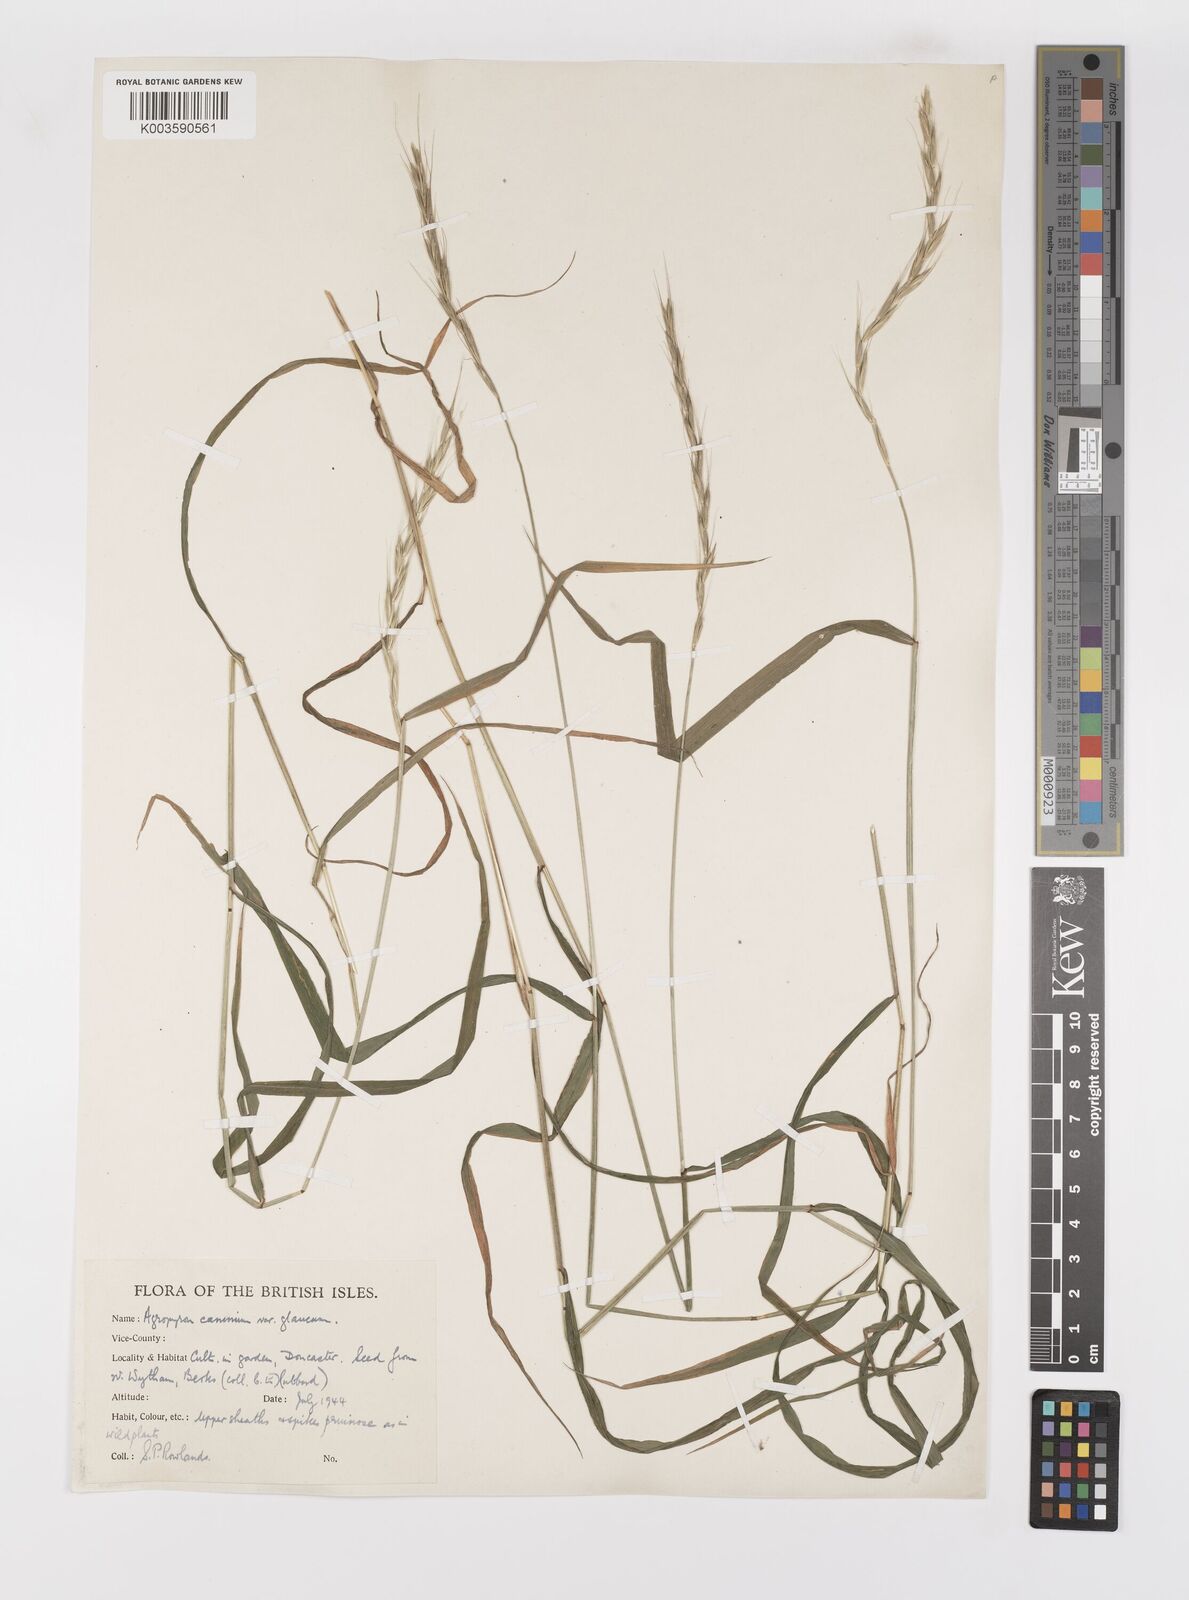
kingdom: Plantae
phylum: Tracheophyta
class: Liliopsida
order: Poales
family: Poaceae
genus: Elymus
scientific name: Elymus caninus
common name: Bearded couch
